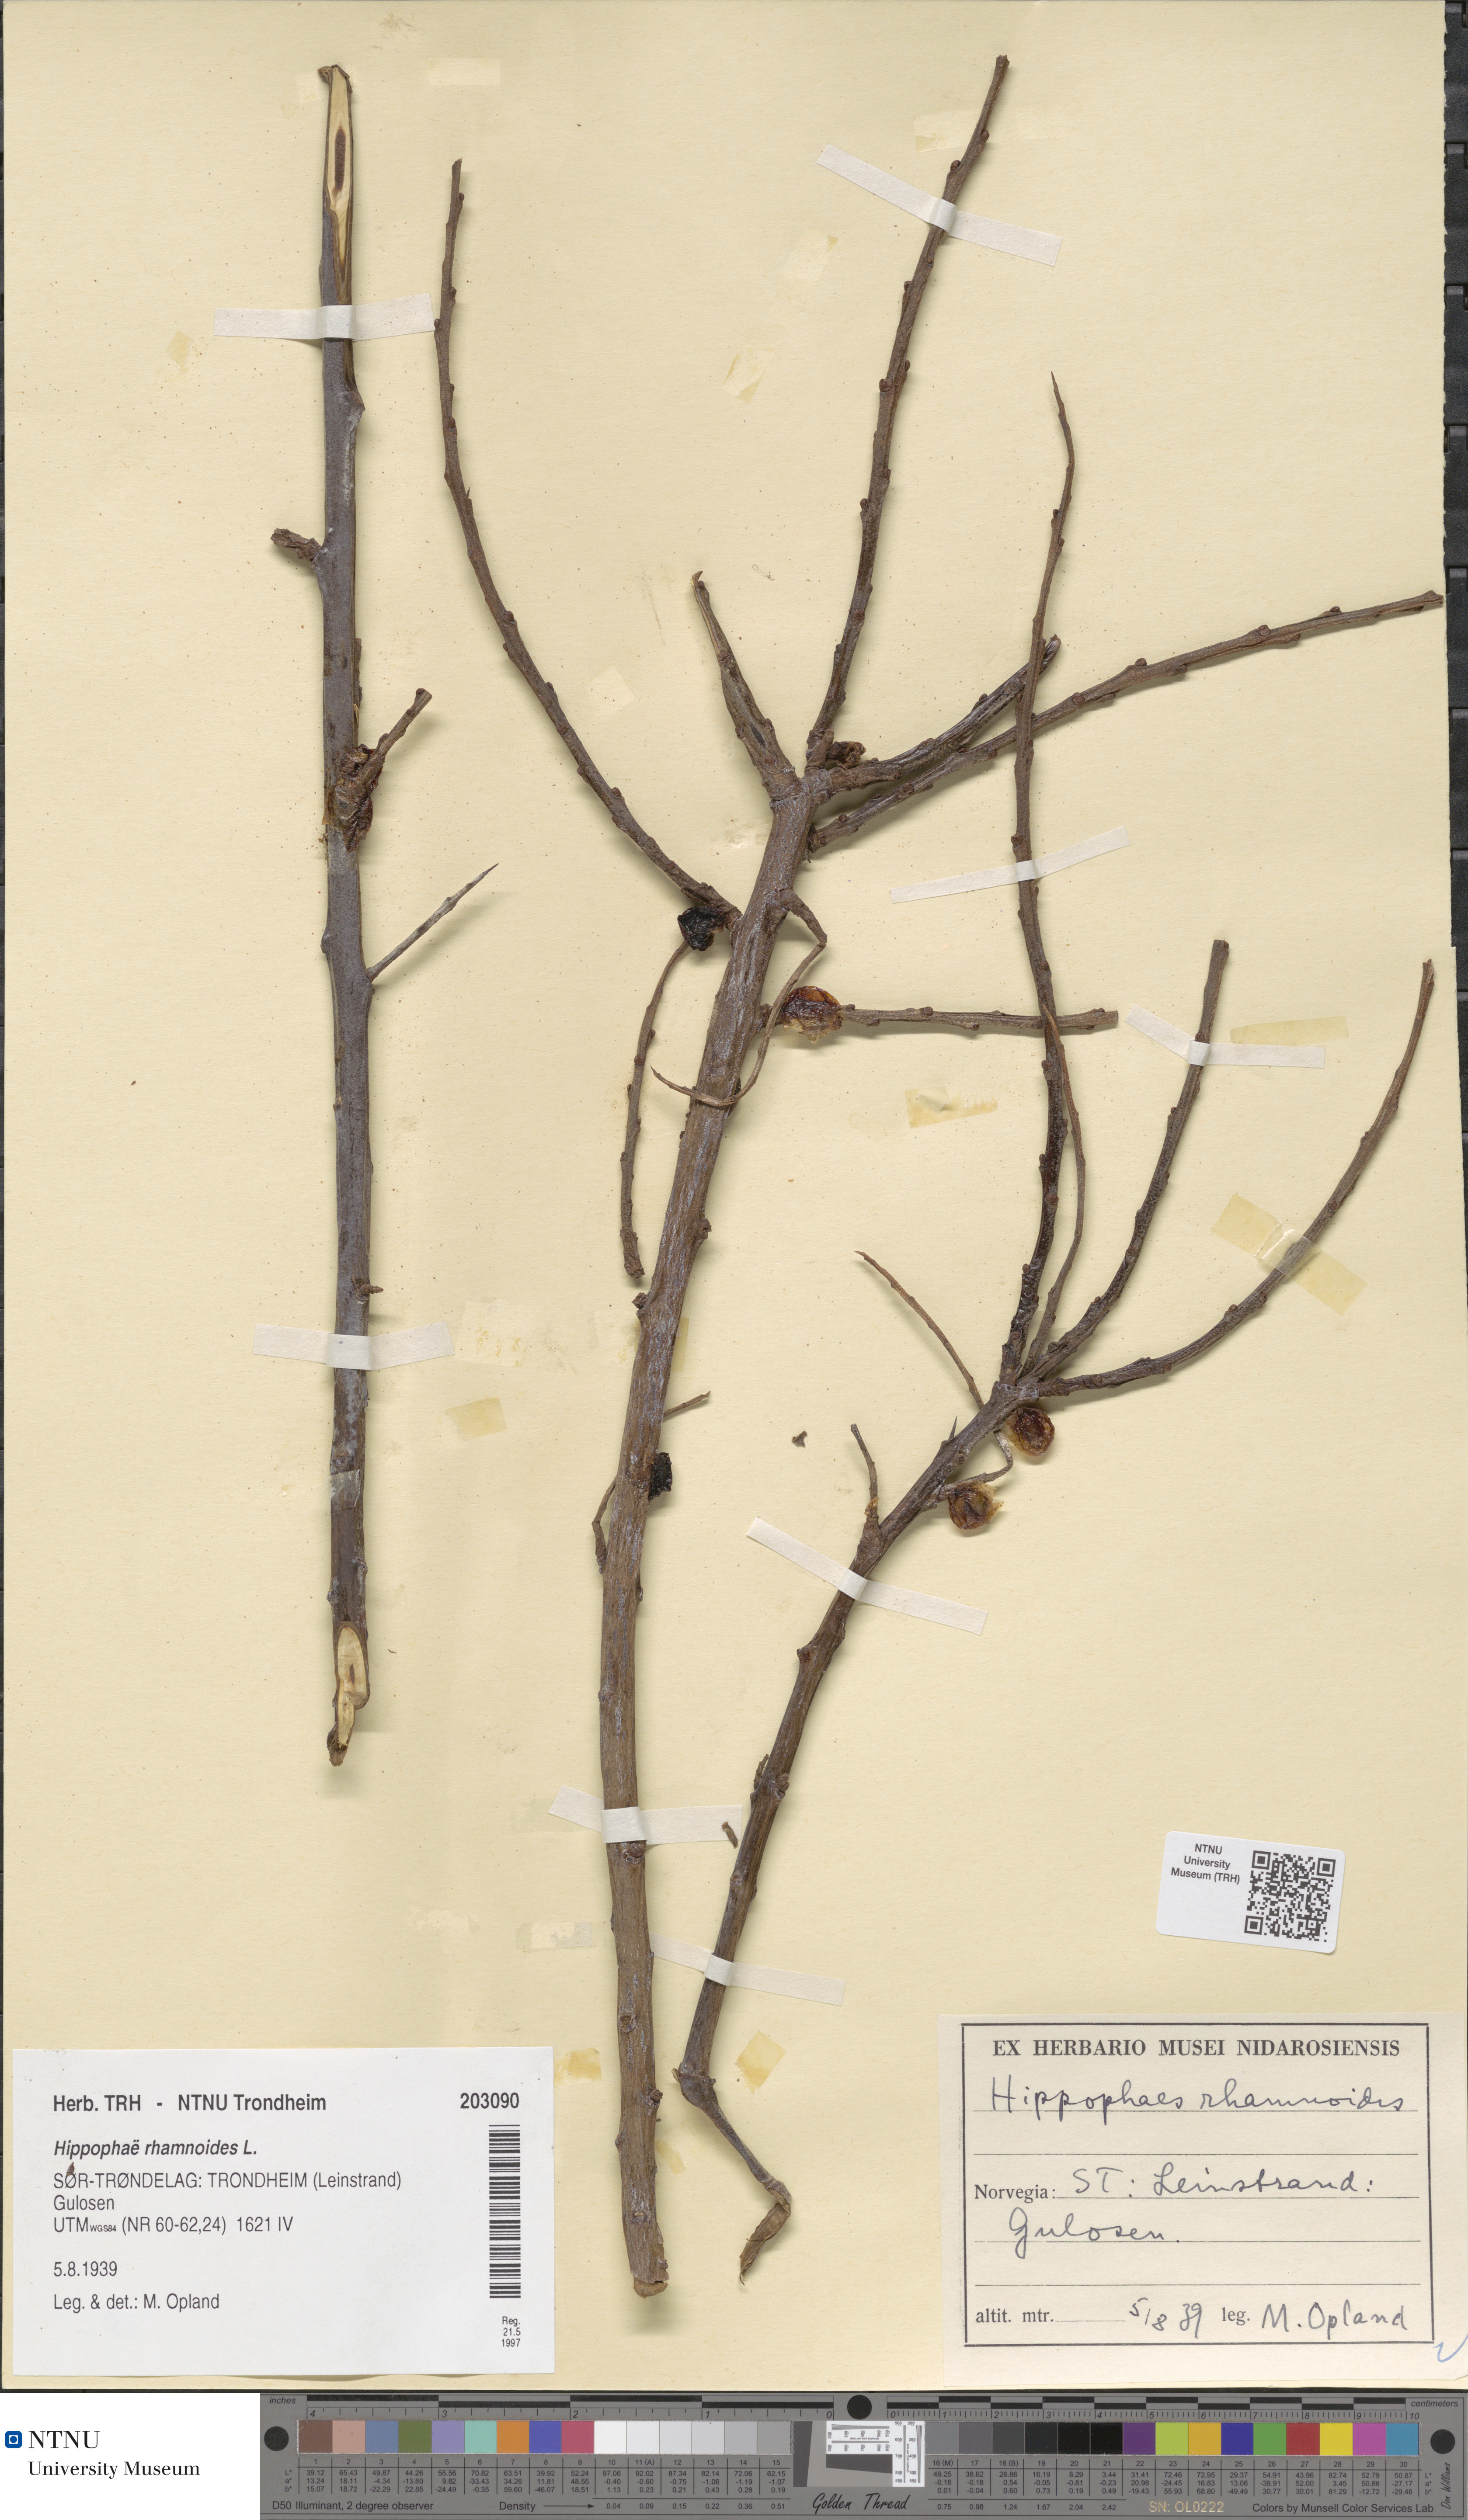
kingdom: Plantae
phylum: Tracheophyta
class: Magnoliopsida
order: Rosales
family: Elaeagnaceae
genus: Hippophae
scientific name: Hippophae rhamnoides
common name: Sea-buckthorn
